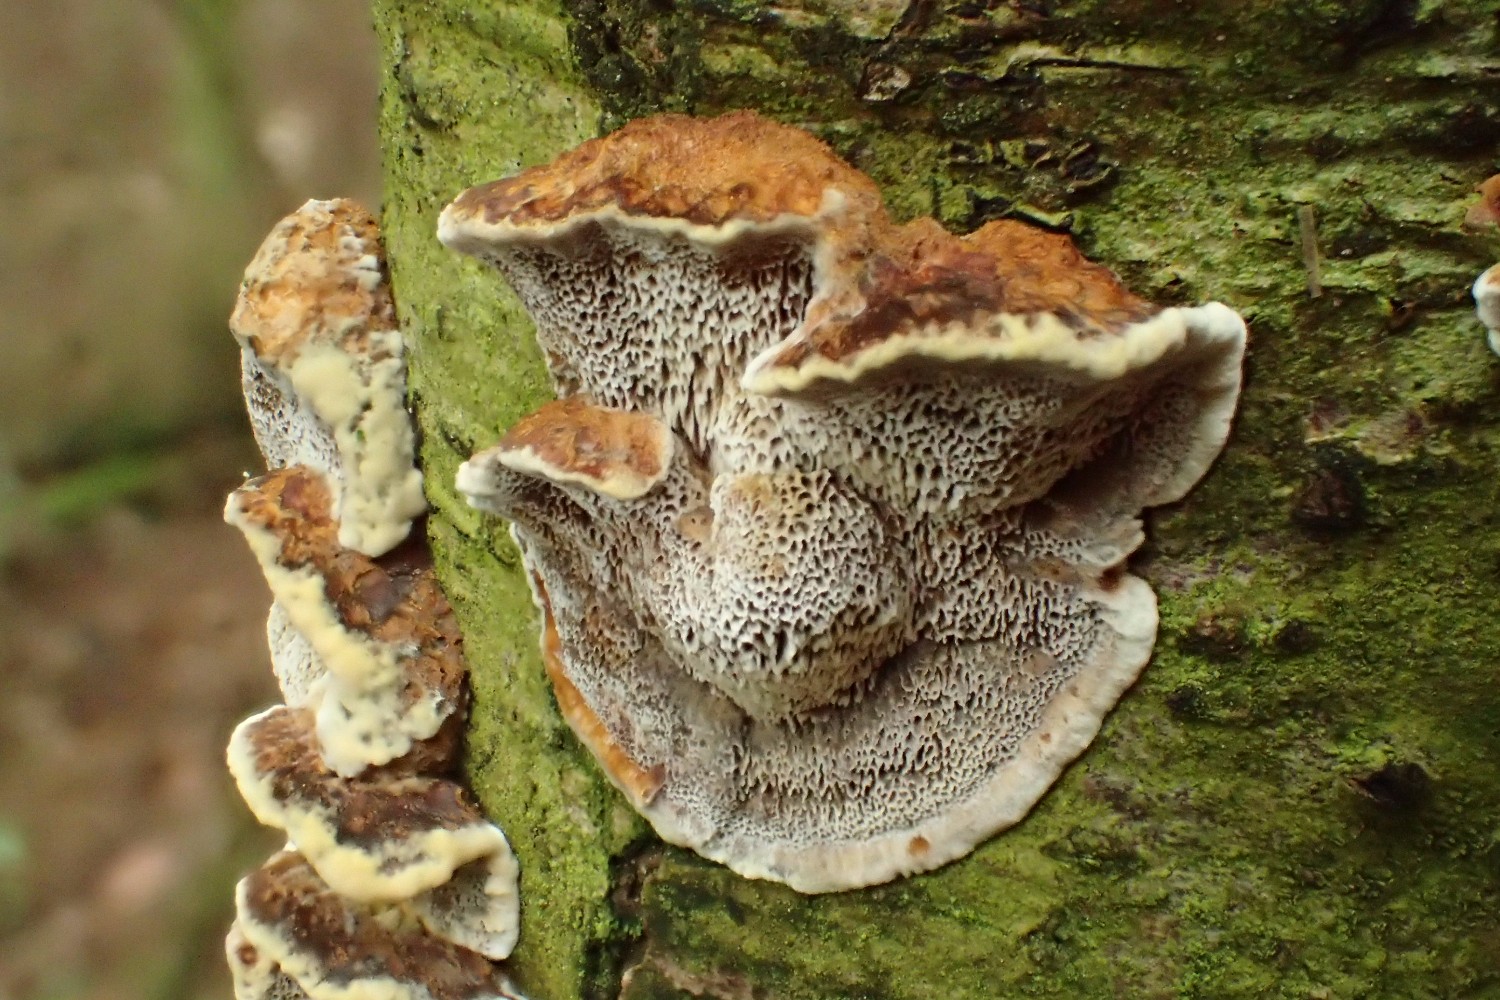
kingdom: Fungi
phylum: Basidiomycota
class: Agaricomycetes
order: Hymenochaetales
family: Hymenochaetaceae
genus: Xanthoporia
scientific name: Xanthoporia radiata
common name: elle-spejlporesvamp
